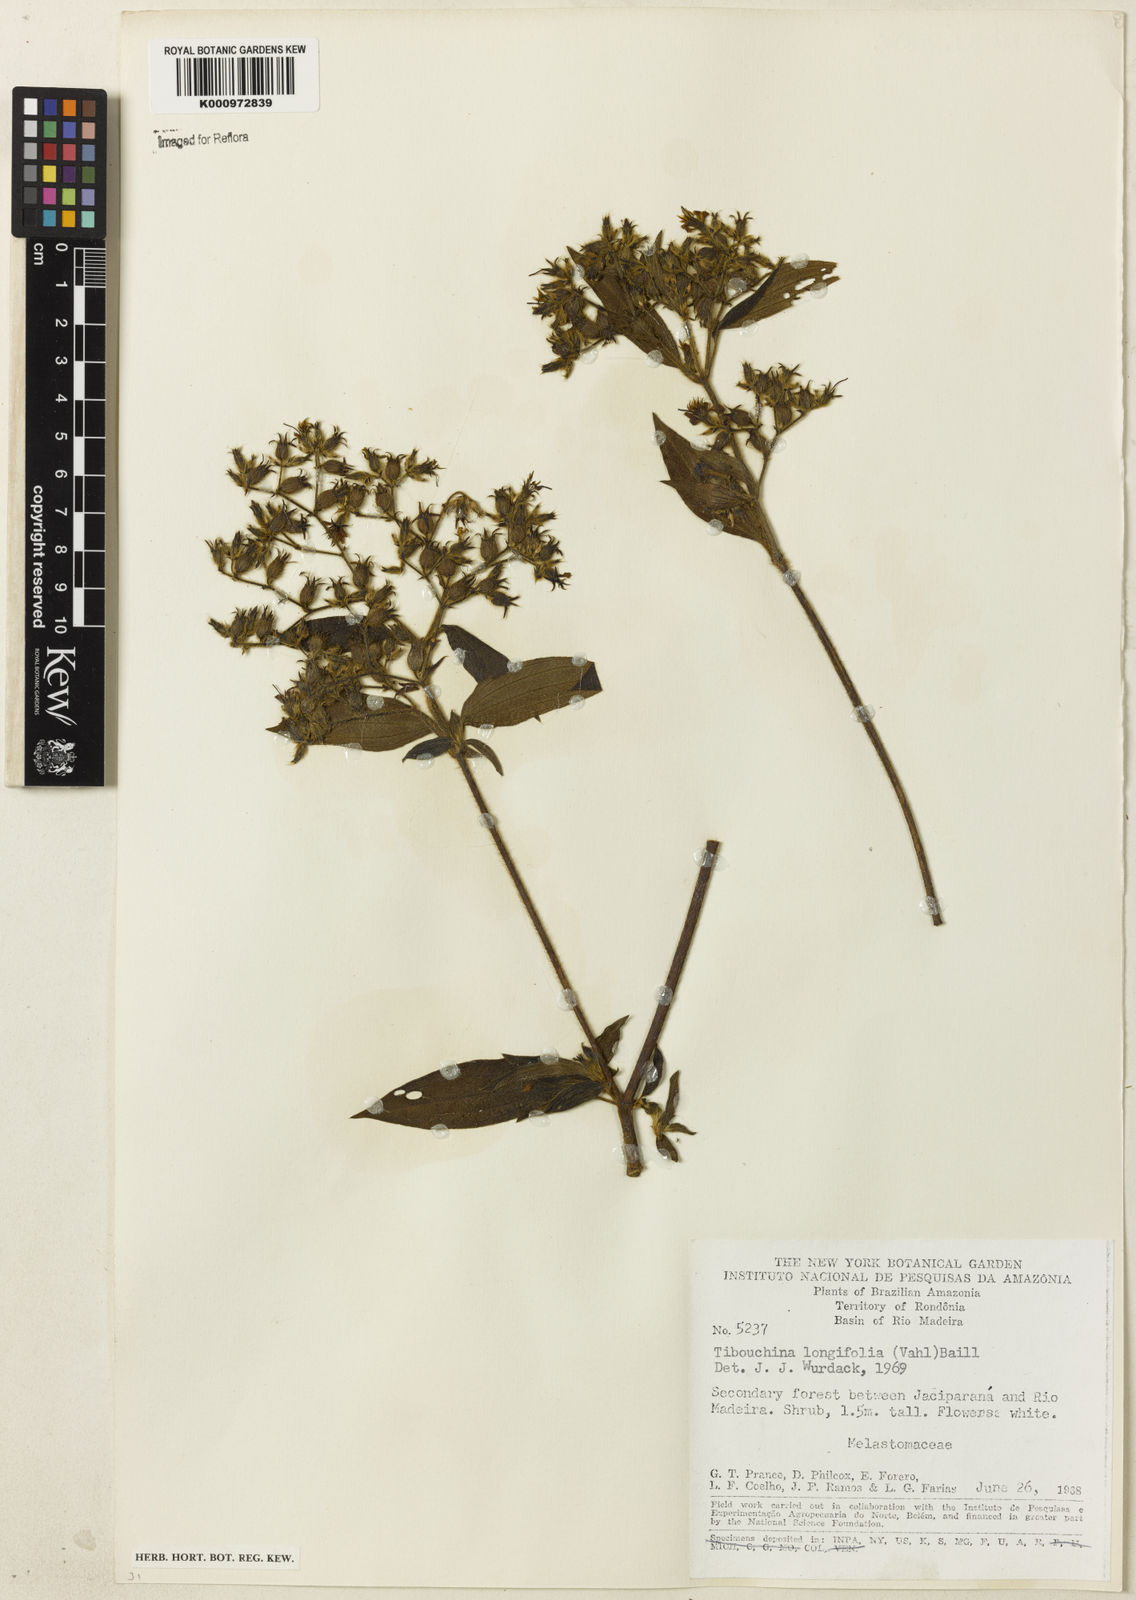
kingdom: Plantae
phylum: Tracheophyta
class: Magnoliopsida
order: Myrtales
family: Melastomataceae
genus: Chaetogastra
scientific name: Chaetogastra longifolia
